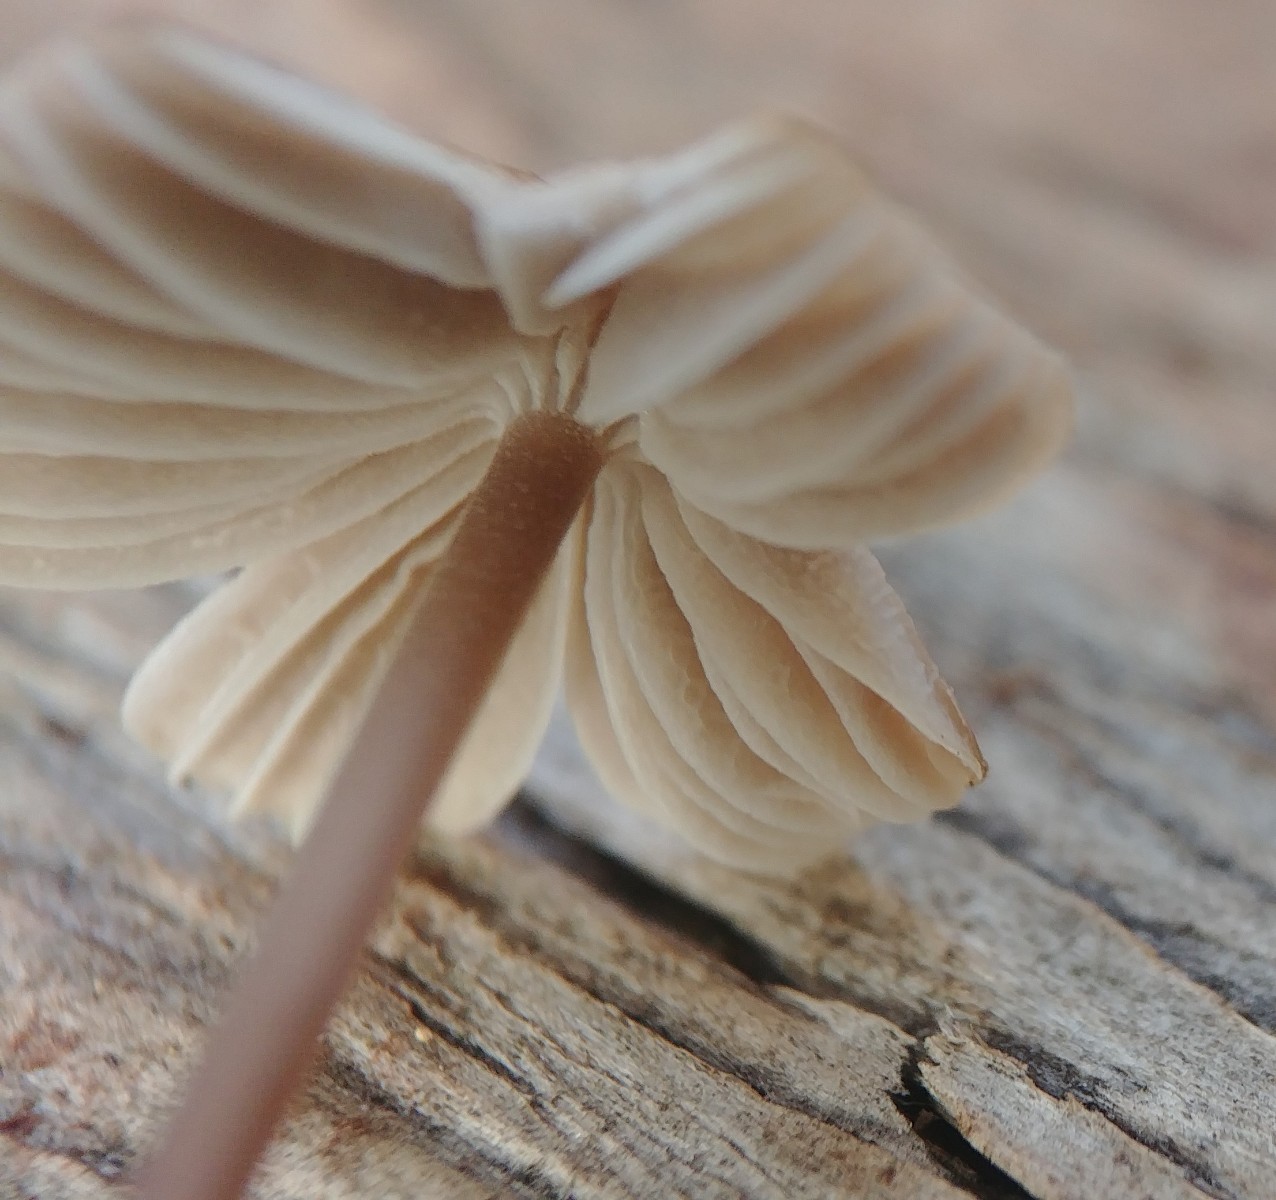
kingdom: Fungi
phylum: Basidiomycota
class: Agaricomycetes
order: Agaricales
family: Mycenaceae
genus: Mycena
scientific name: Mycena aetites
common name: plæne-huesvamp
